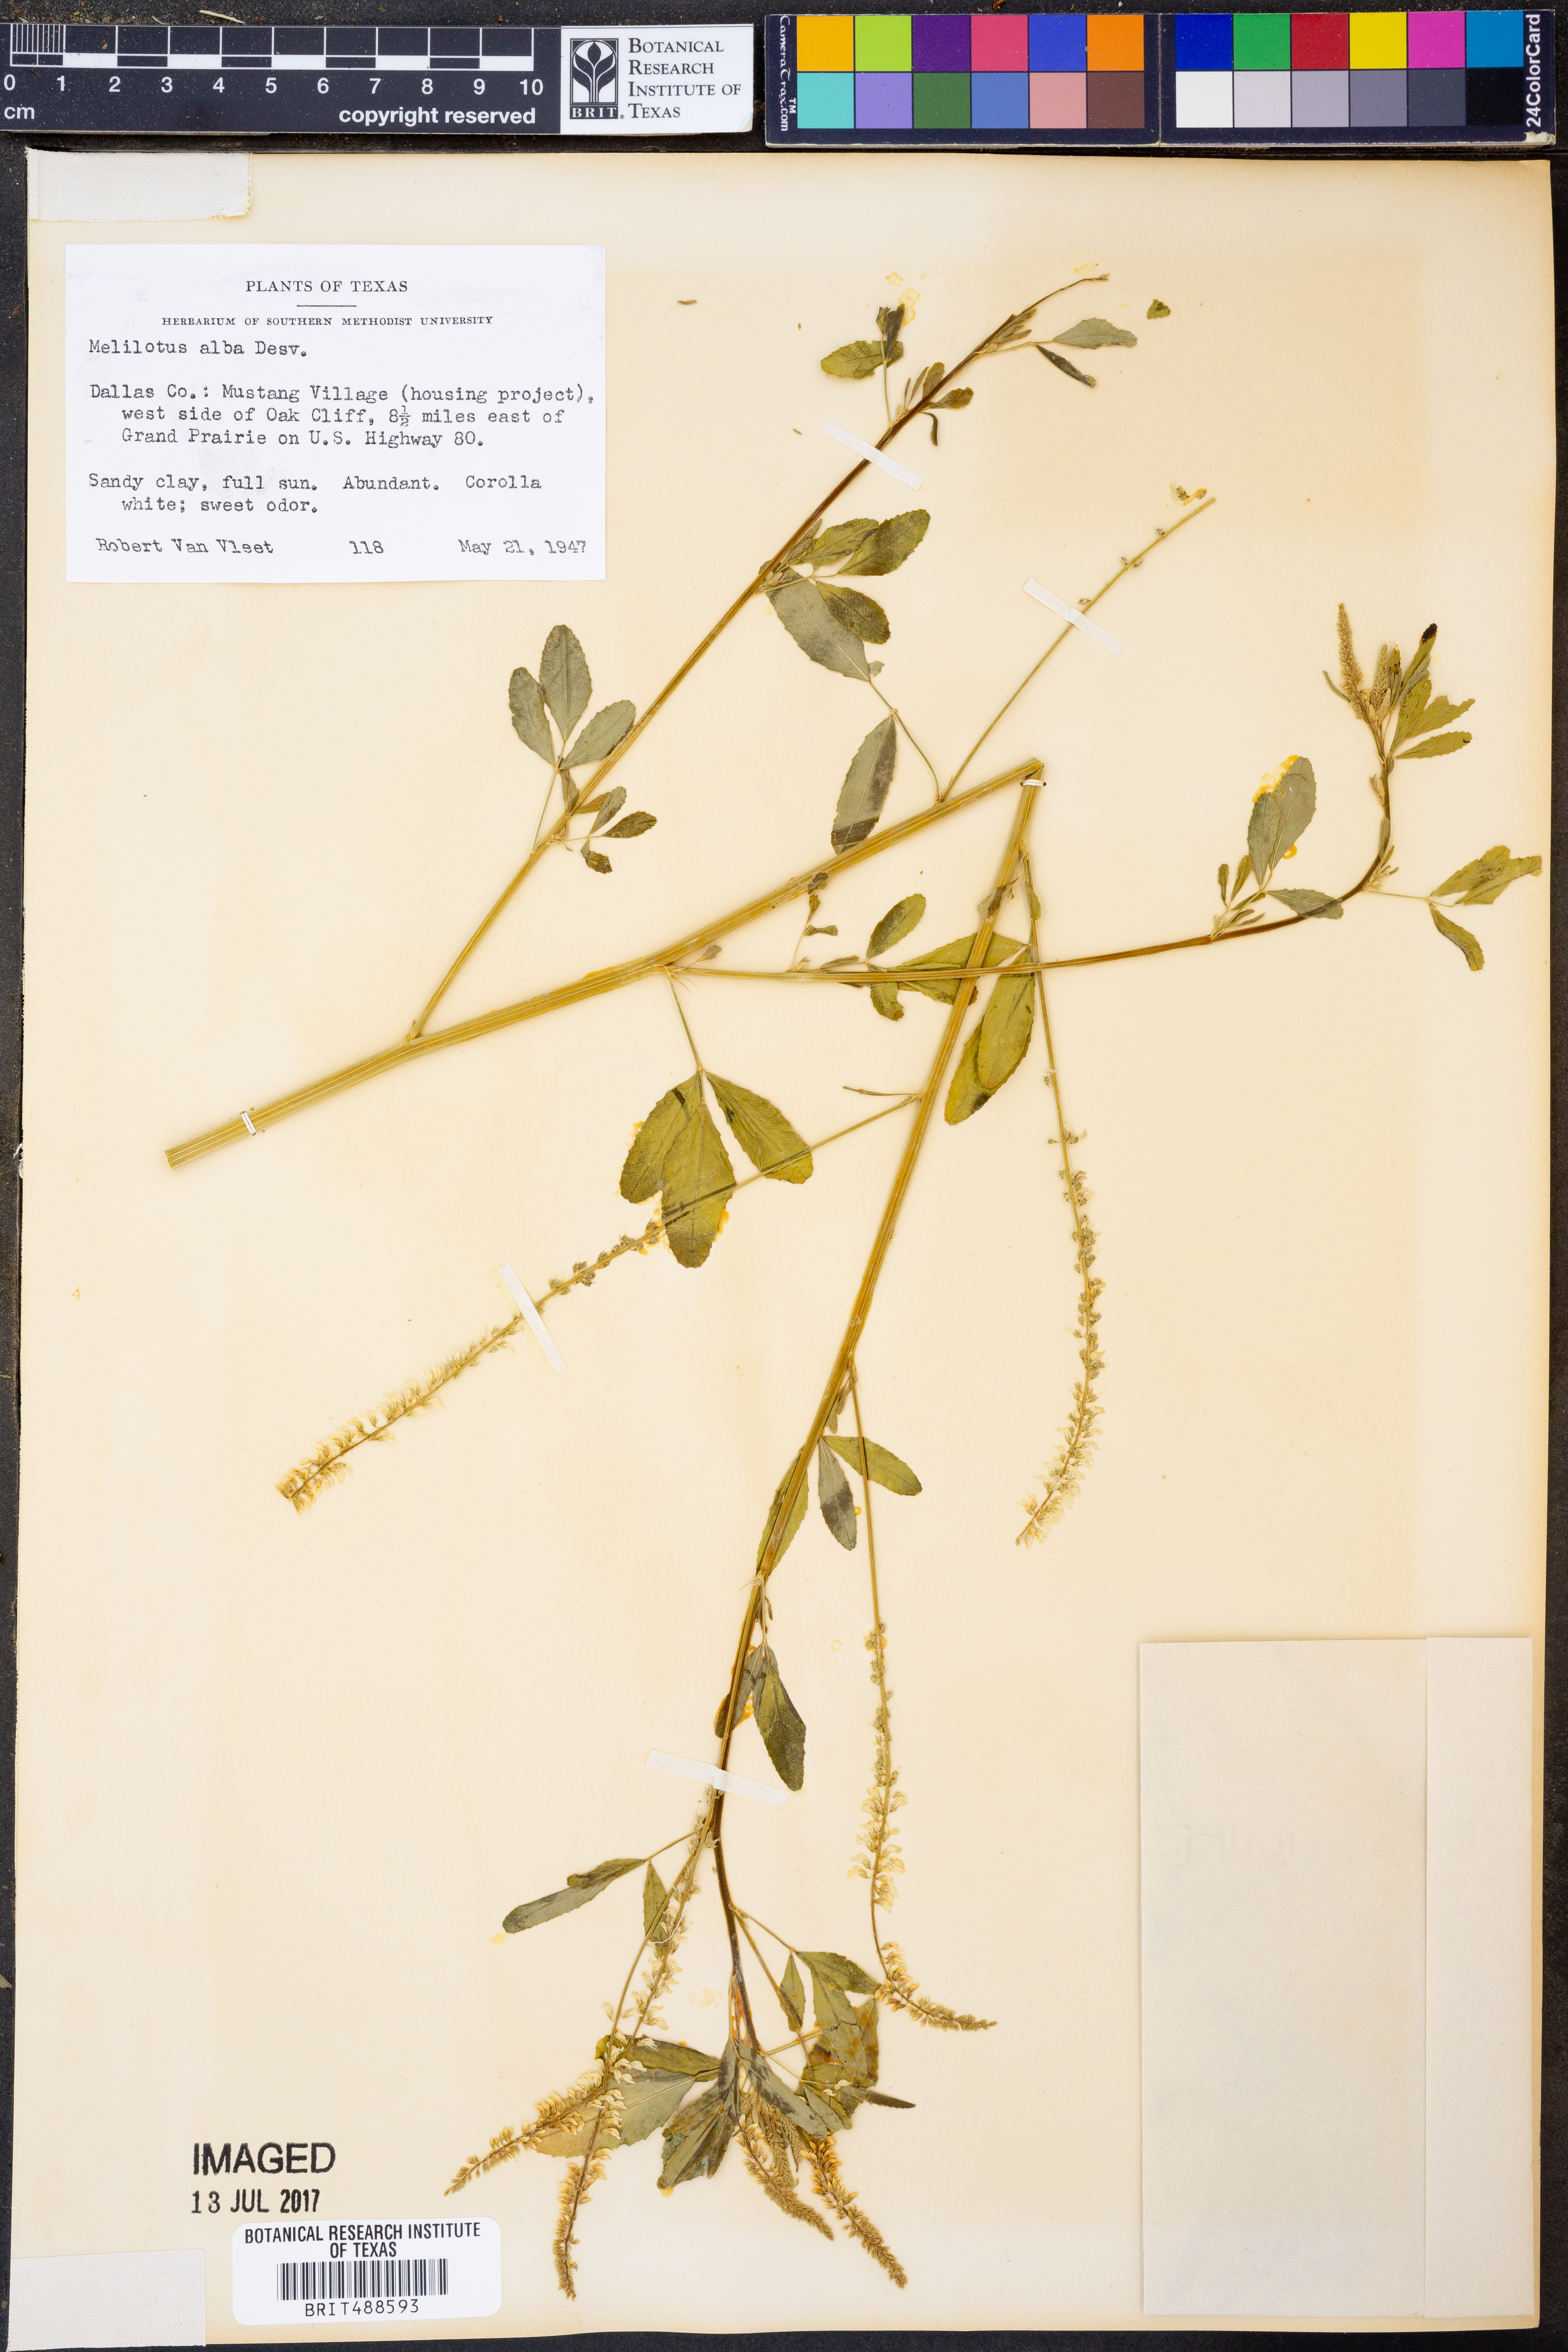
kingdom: Plantae
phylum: Tracheophyta
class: Magnoliopsida
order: Fabales
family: Fabaceae
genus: Melilotus
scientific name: Melilotus albus
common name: White melilot
